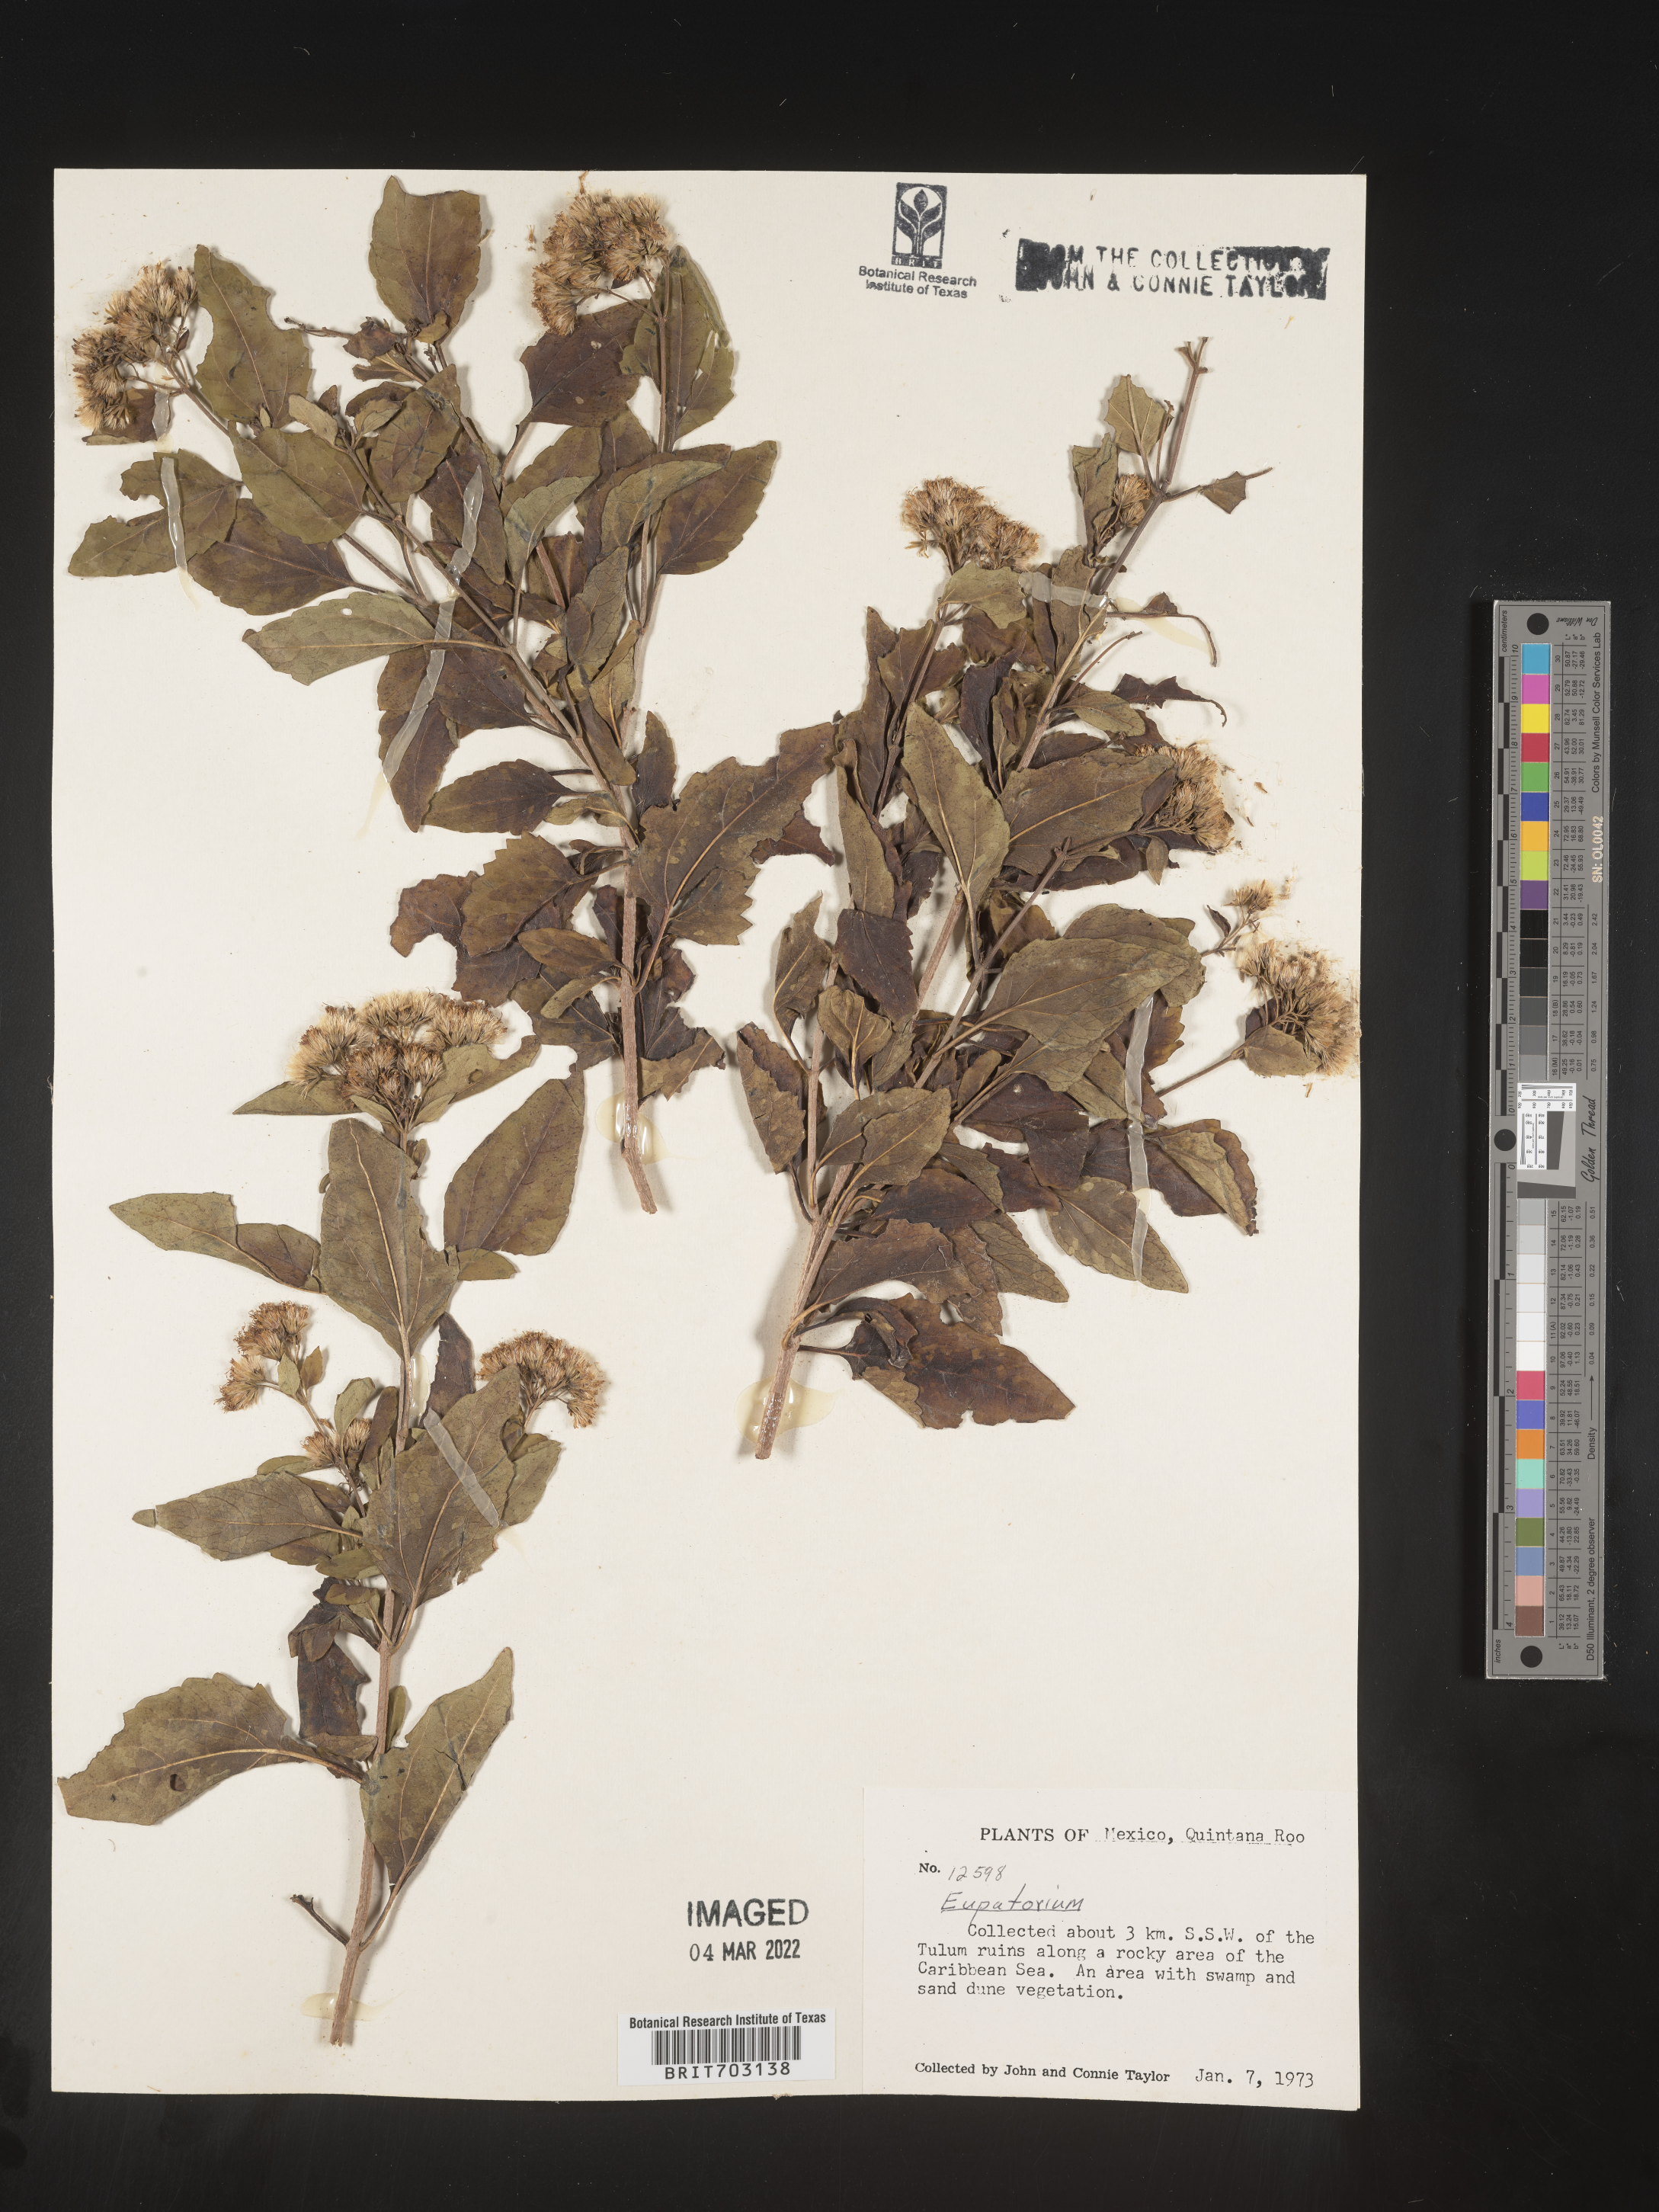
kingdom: Plantae
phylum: Tracheophyta
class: Magnoliopsida
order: Asterales
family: Asteraceae
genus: Eupatorium
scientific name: Eupatorium
